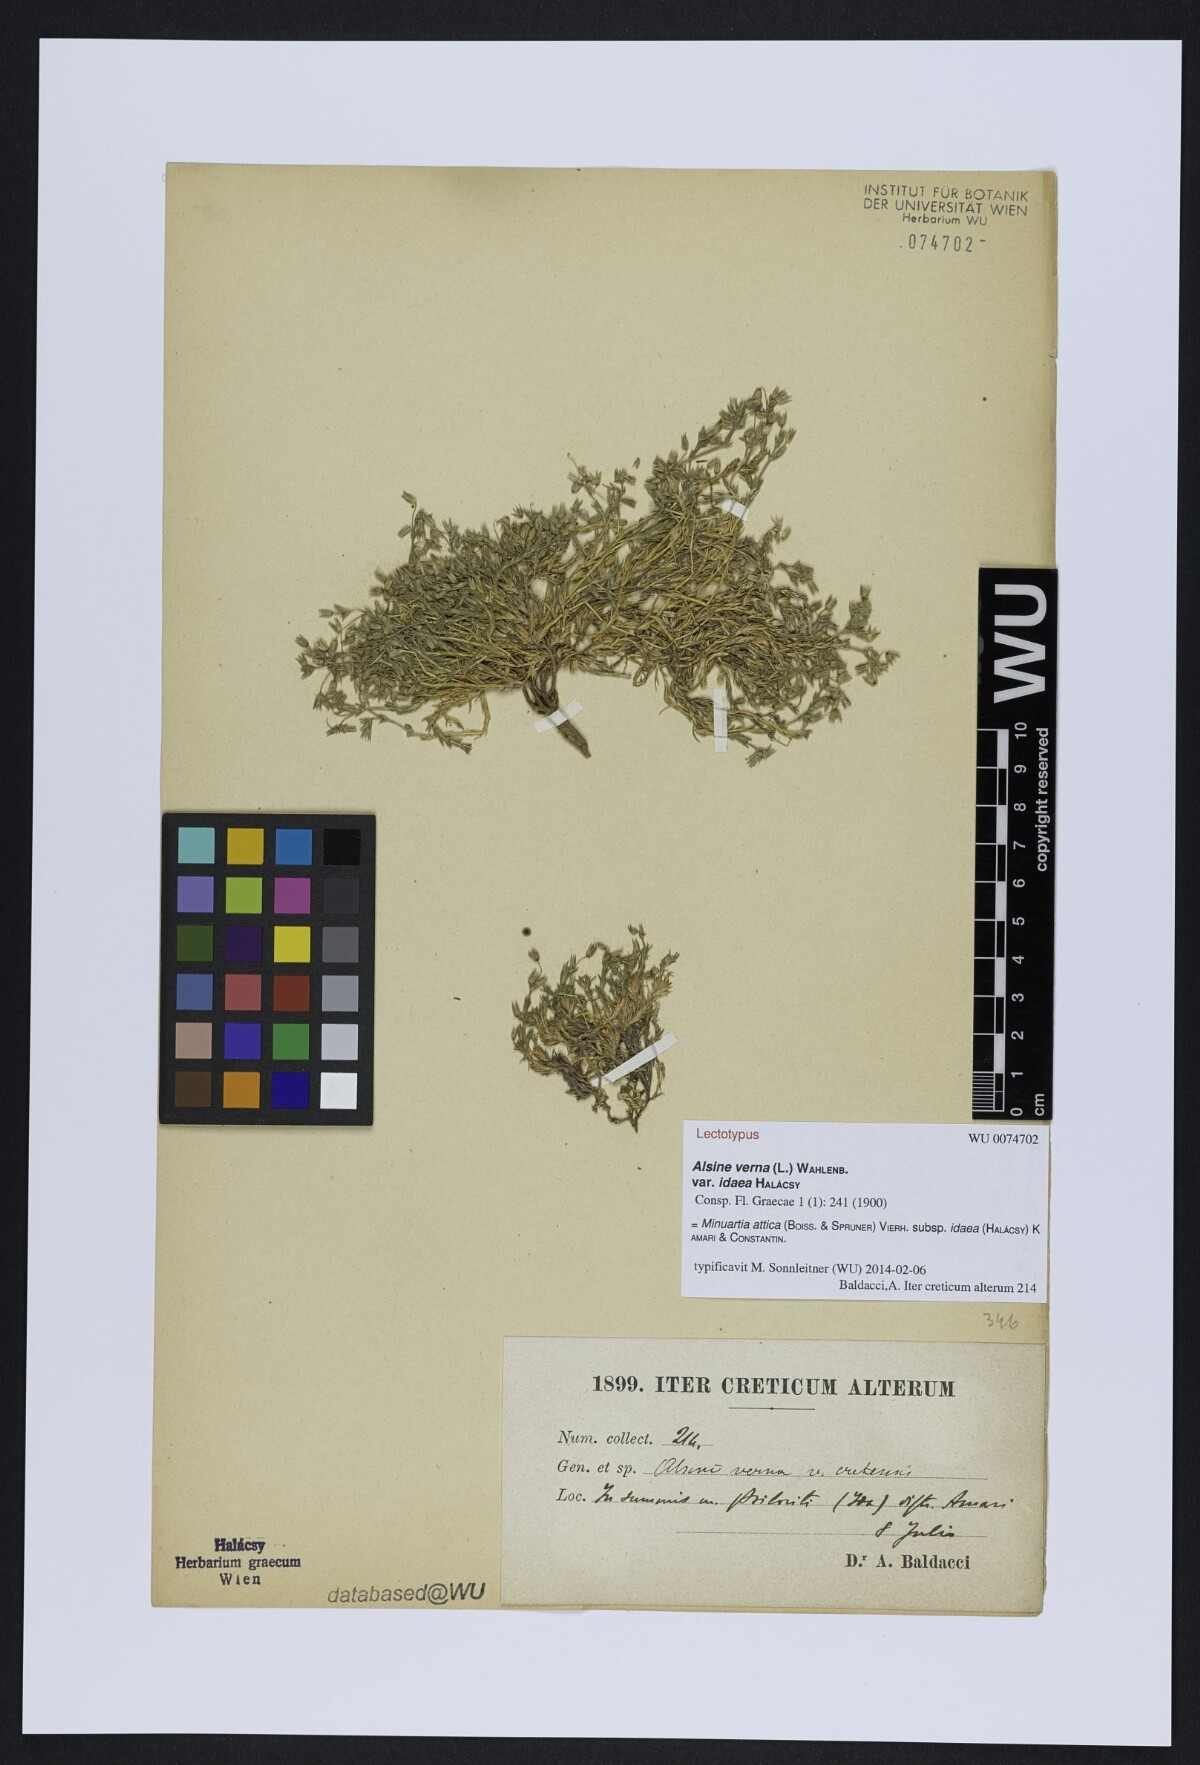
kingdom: Plantae
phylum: Tracheophyta
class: Magnoliopsida
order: Caryophyllales
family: Caryophyllaceae
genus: Sabulina
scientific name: Sabulina attica
